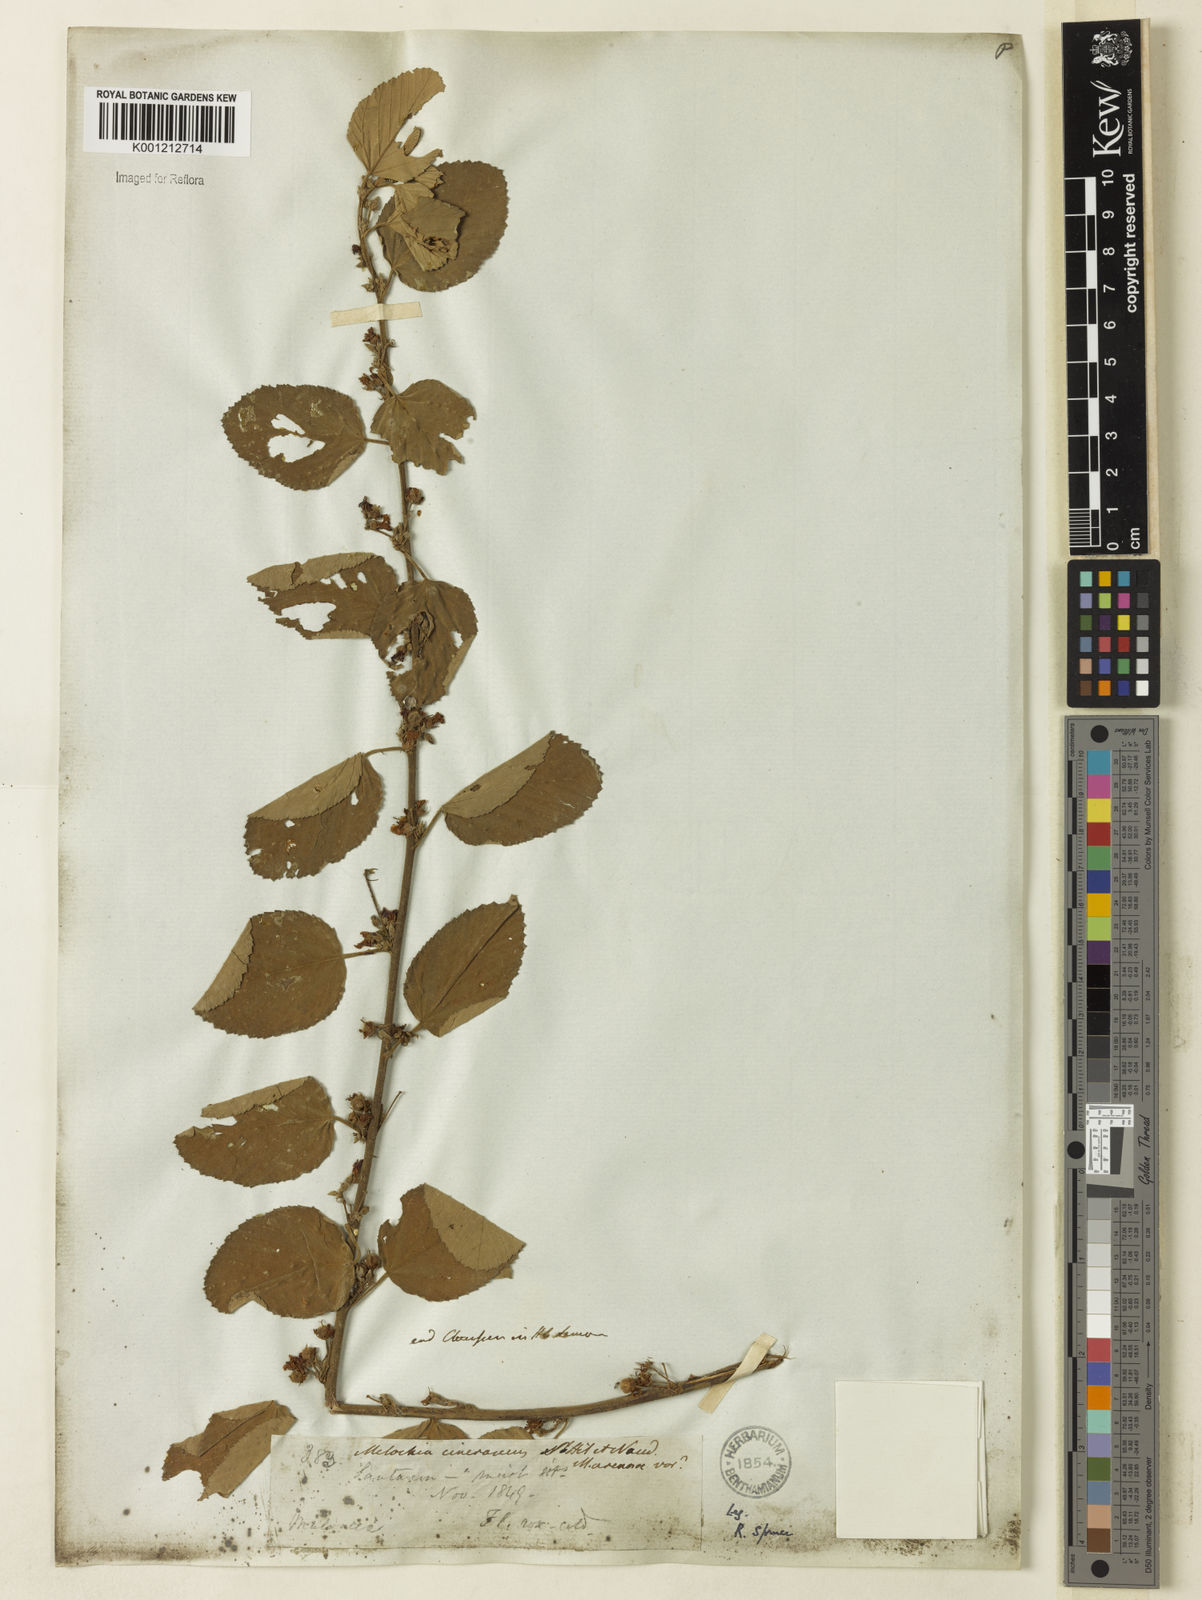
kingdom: Plantae
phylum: Tracheophyta
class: Magnoliopsida
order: Malvales
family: Malvaceae
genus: Melochia
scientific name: Melochia arenosa
